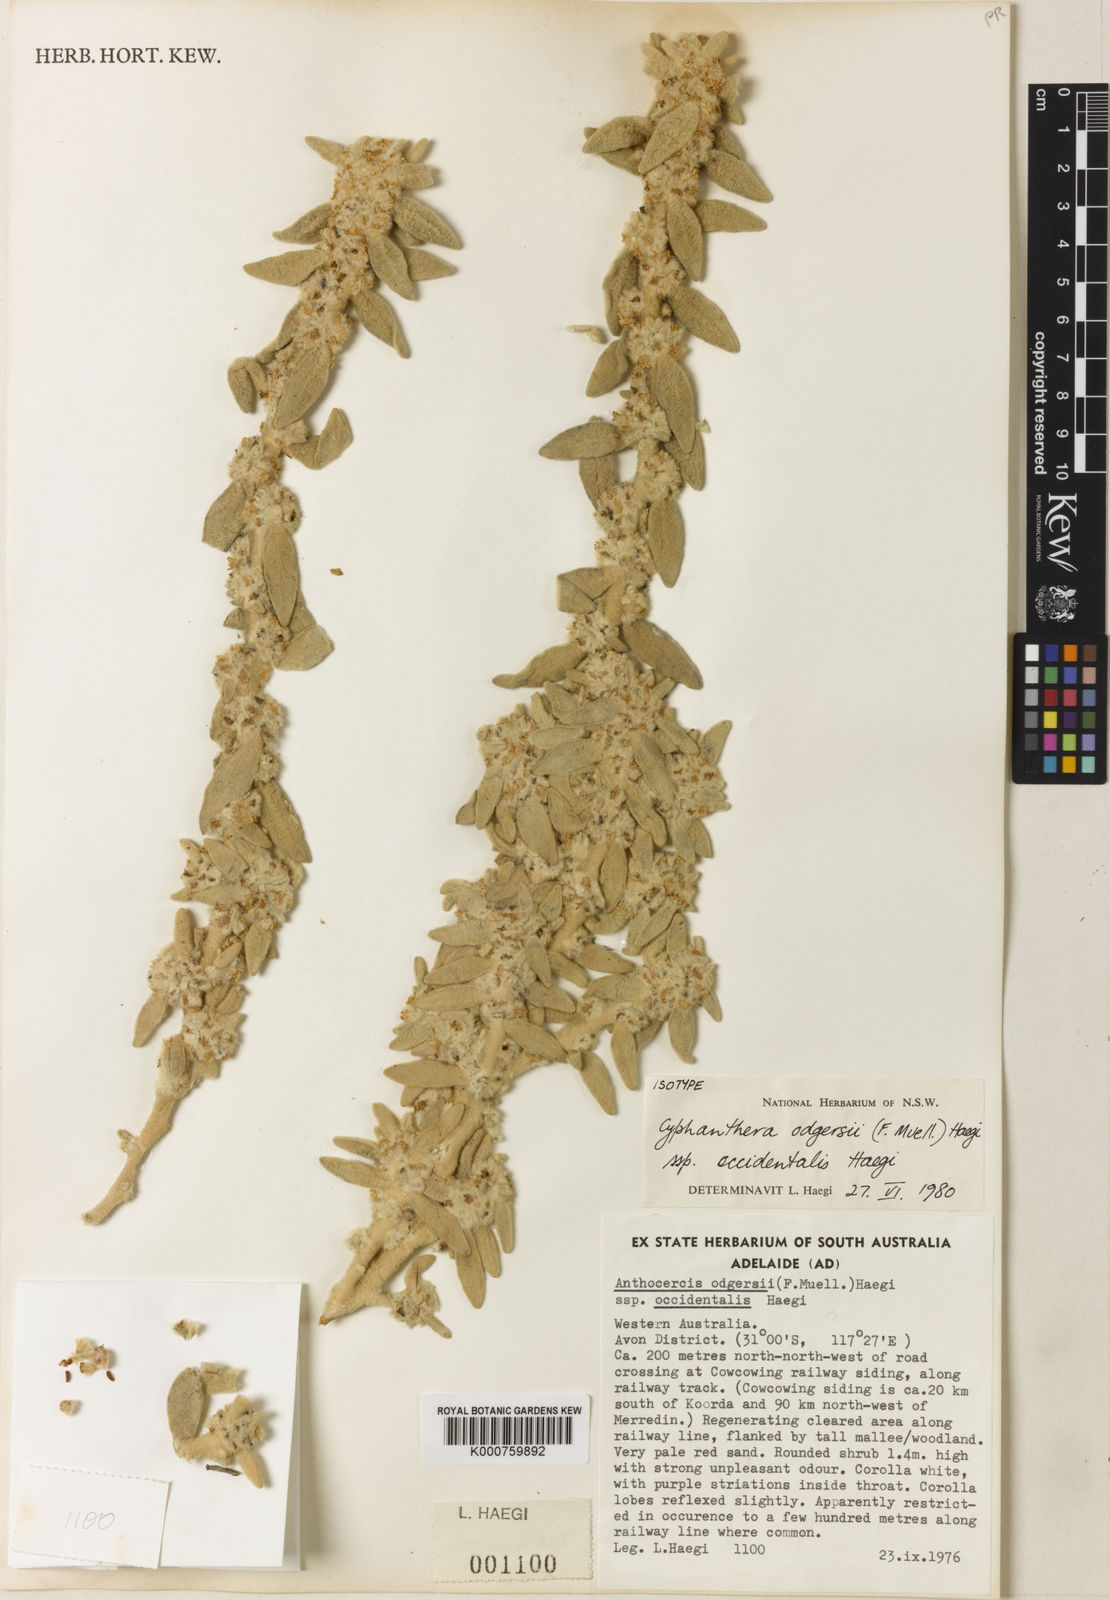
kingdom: Plantae
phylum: Tracheophyta
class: Magnoliopsida
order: Solanales
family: Solanaceae
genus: Grammosolen
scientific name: Grammosolen odgersii
